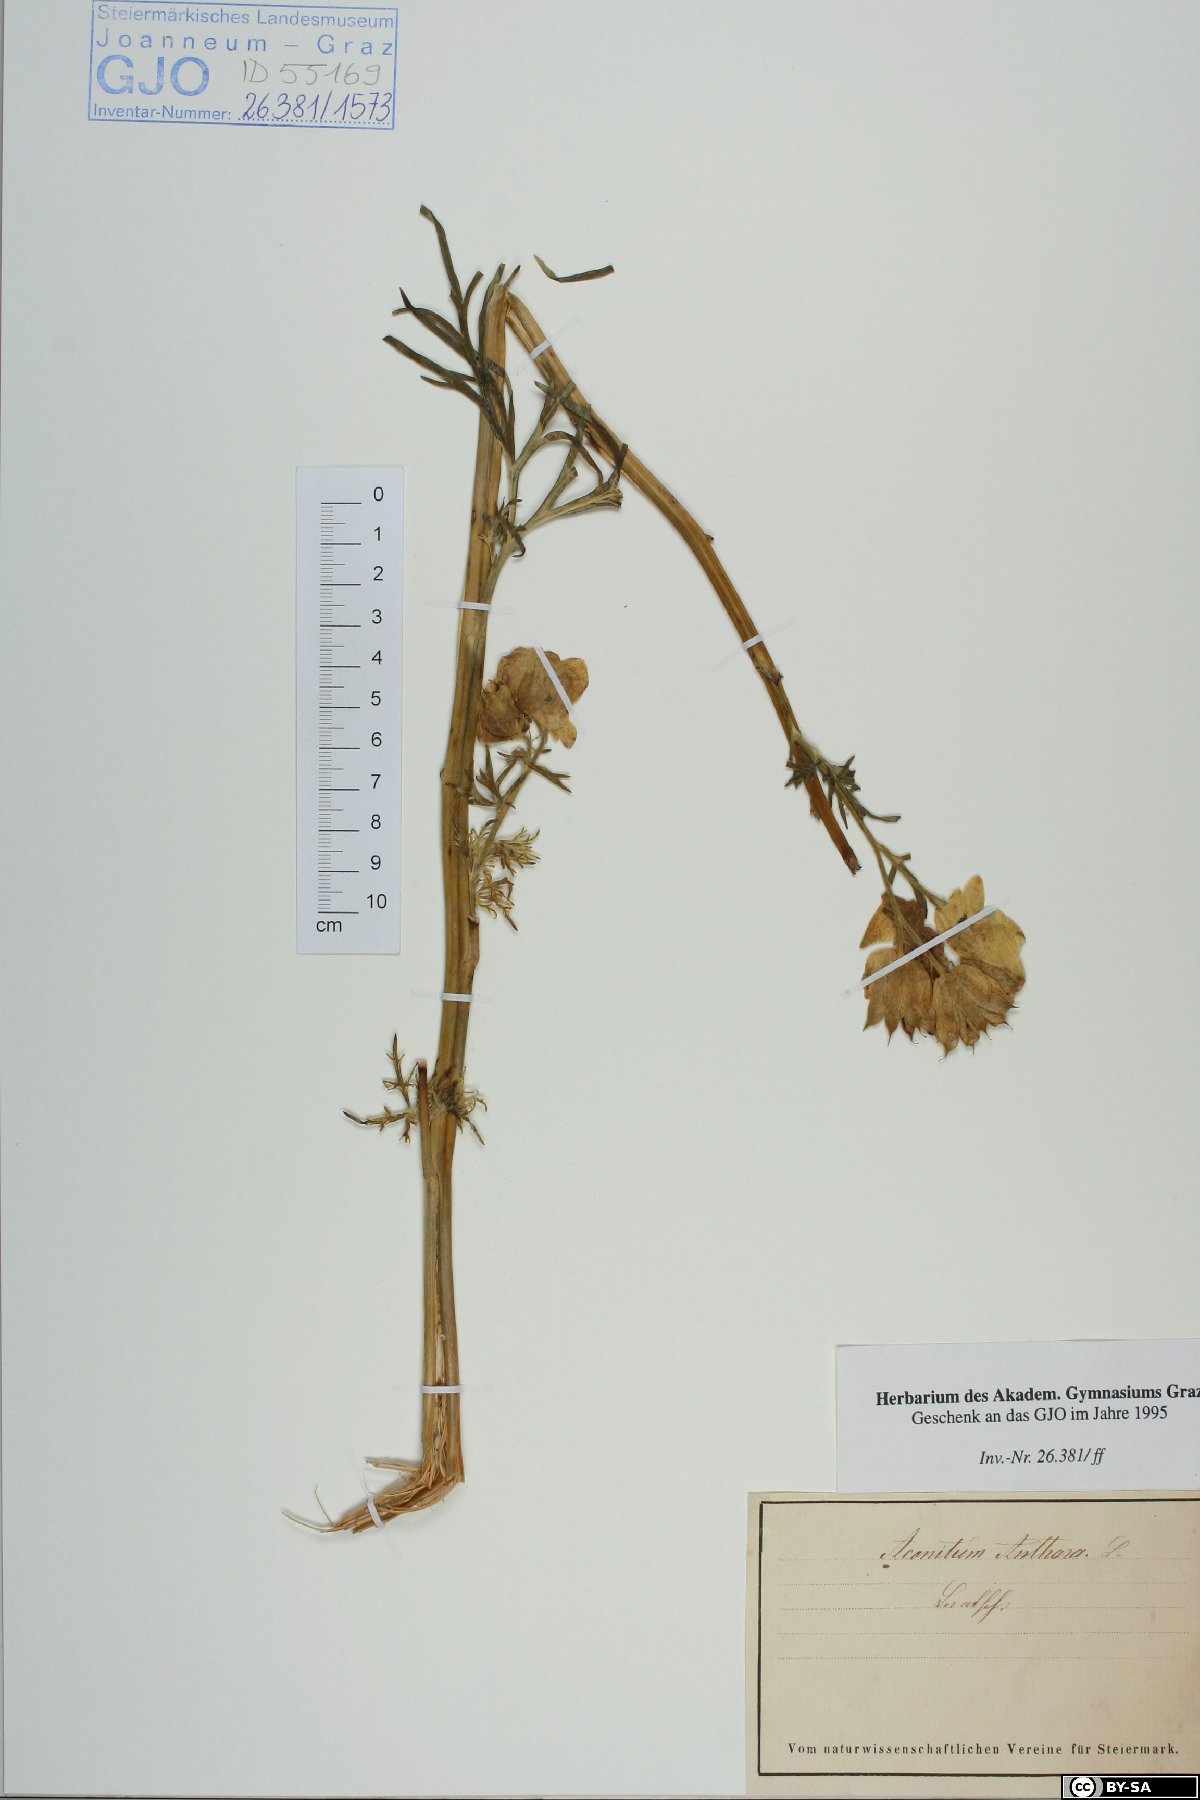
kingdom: Plantae
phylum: Tracheophyta
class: Magnoliopsida
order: Ranunculales
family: Ranunculaceae
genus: Aconitum
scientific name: Aconitum anthora
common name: Yellow monkshood
